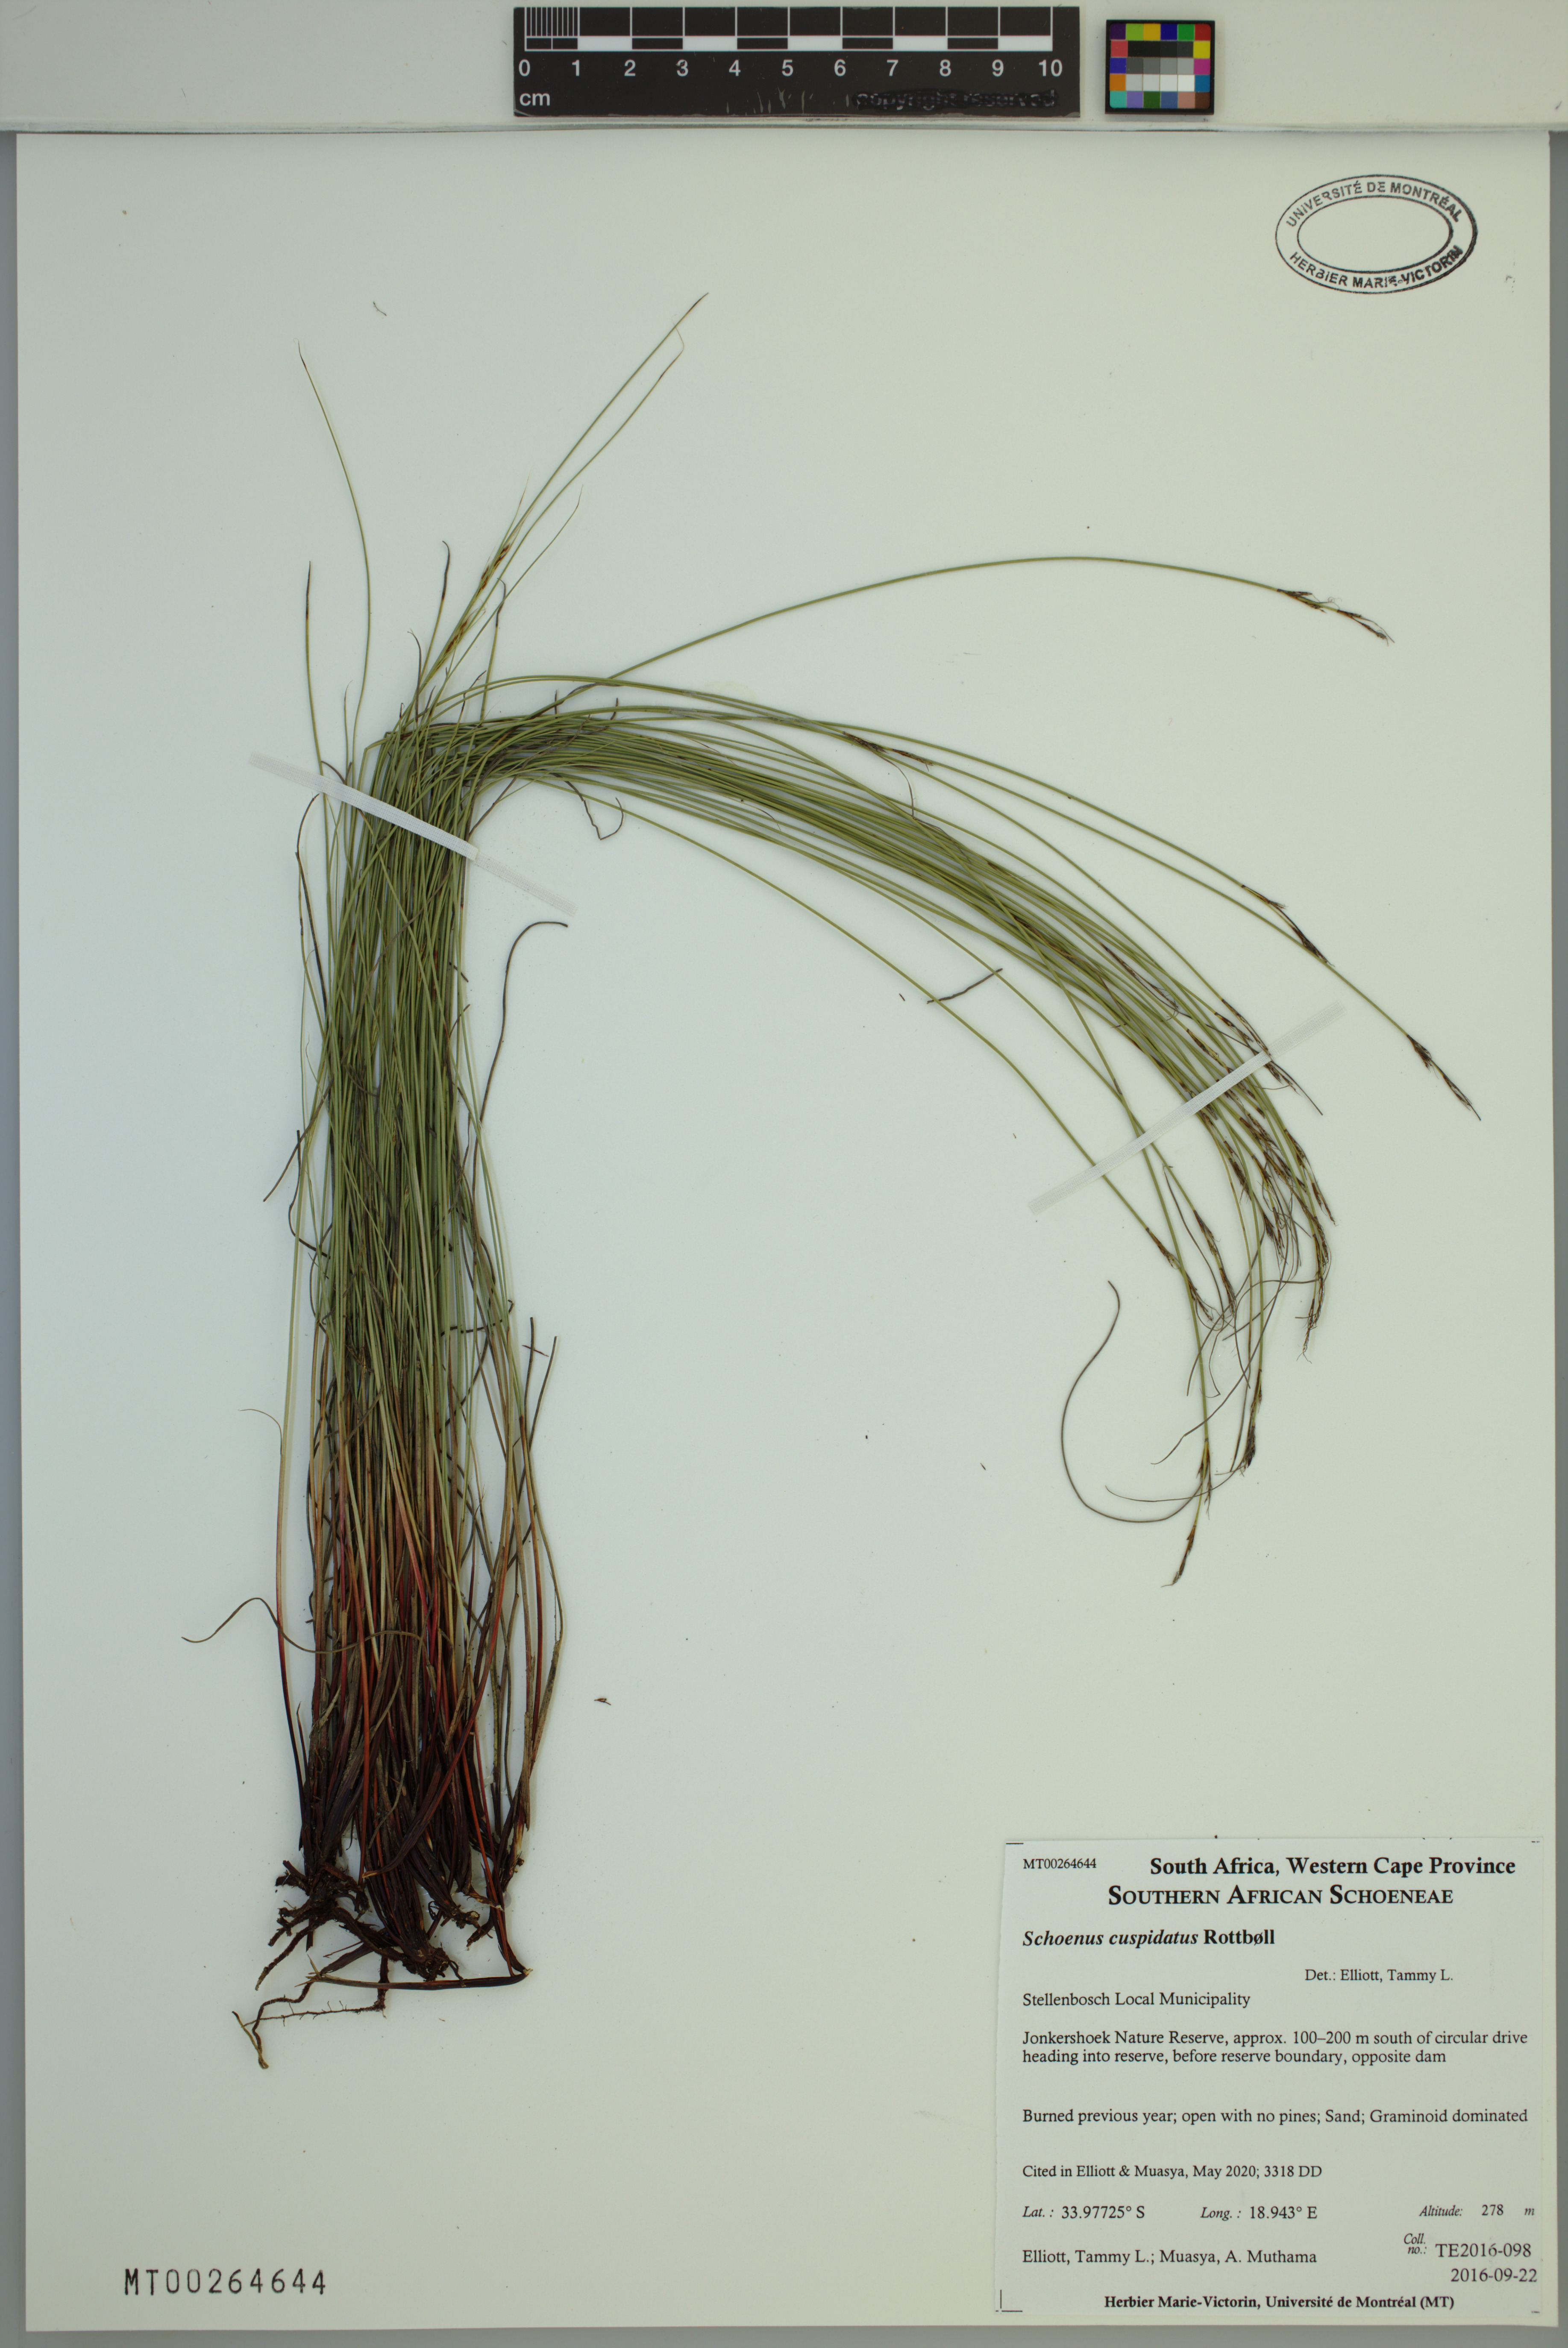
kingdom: Plantae
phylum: Tracheophyta
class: Liliopsida
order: Poales
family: Cyperaceae
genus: Schoenus
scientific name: Schoenus cuspidatus
